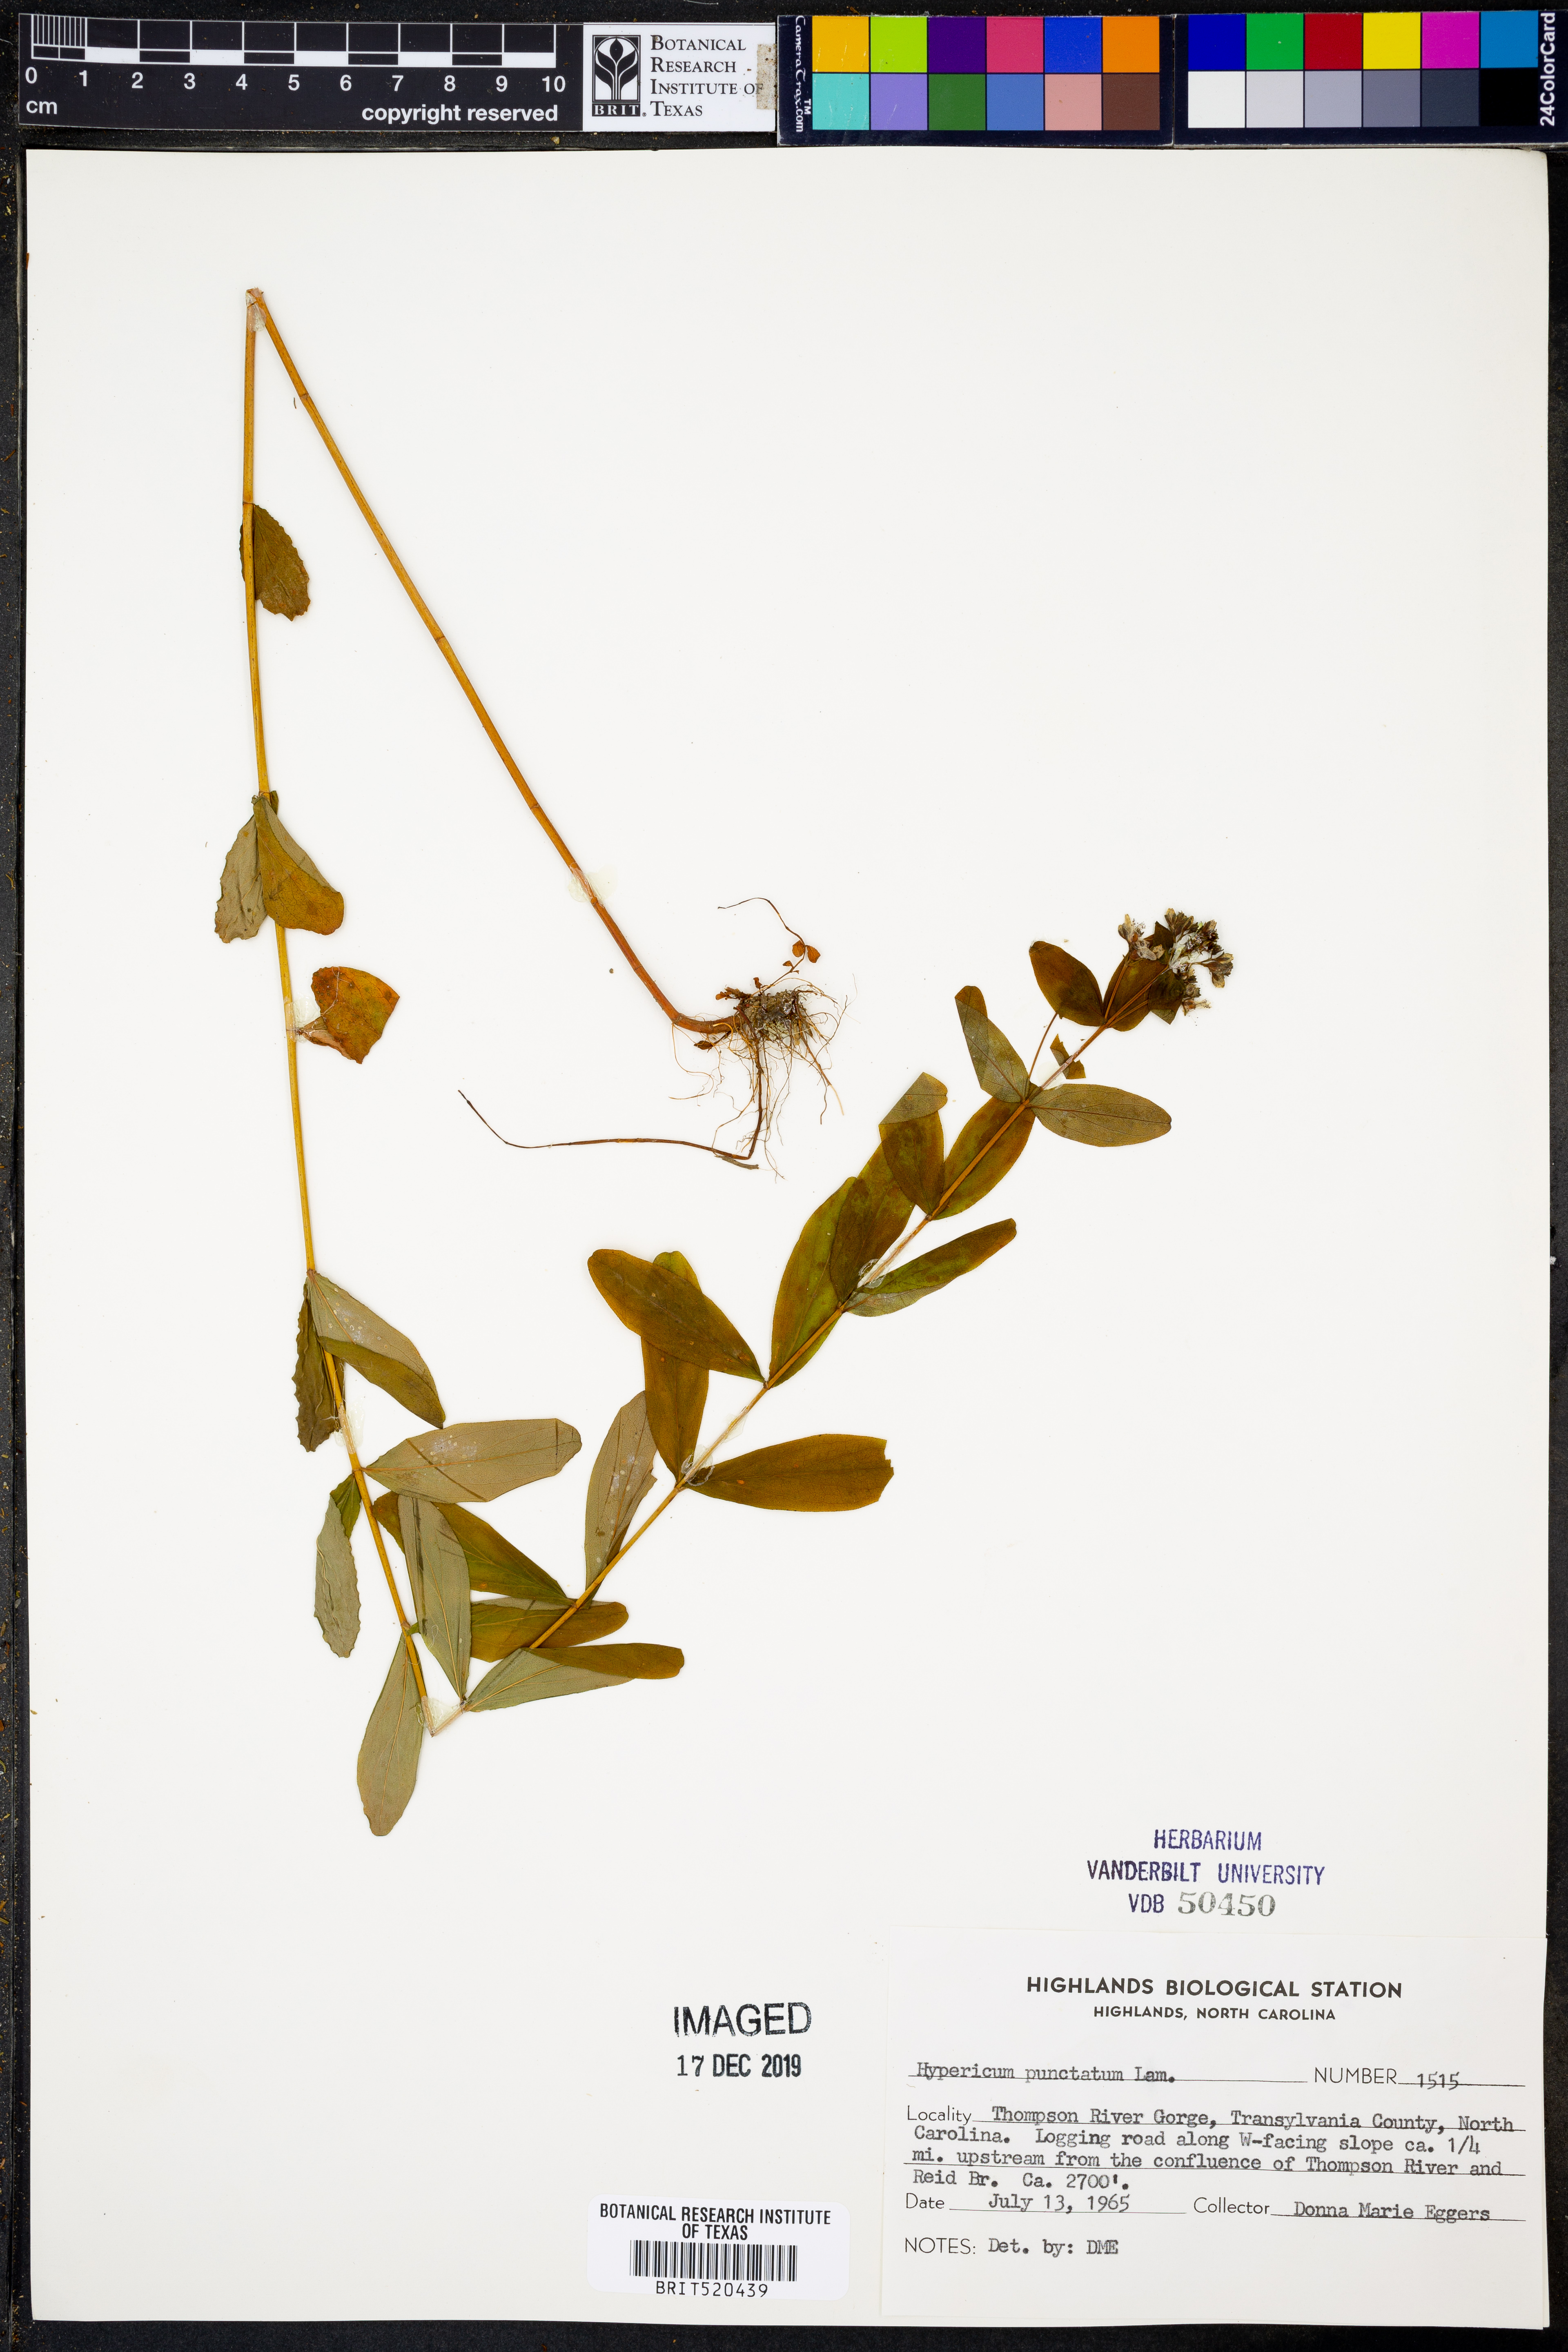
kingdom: Plantae
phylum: Tracheophyta
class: Magnoliopsida
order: Malpighiales
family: Hypericaceae
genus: Hypericum
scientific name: Hypericum punctatum
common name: Spotted st. john's-wort
